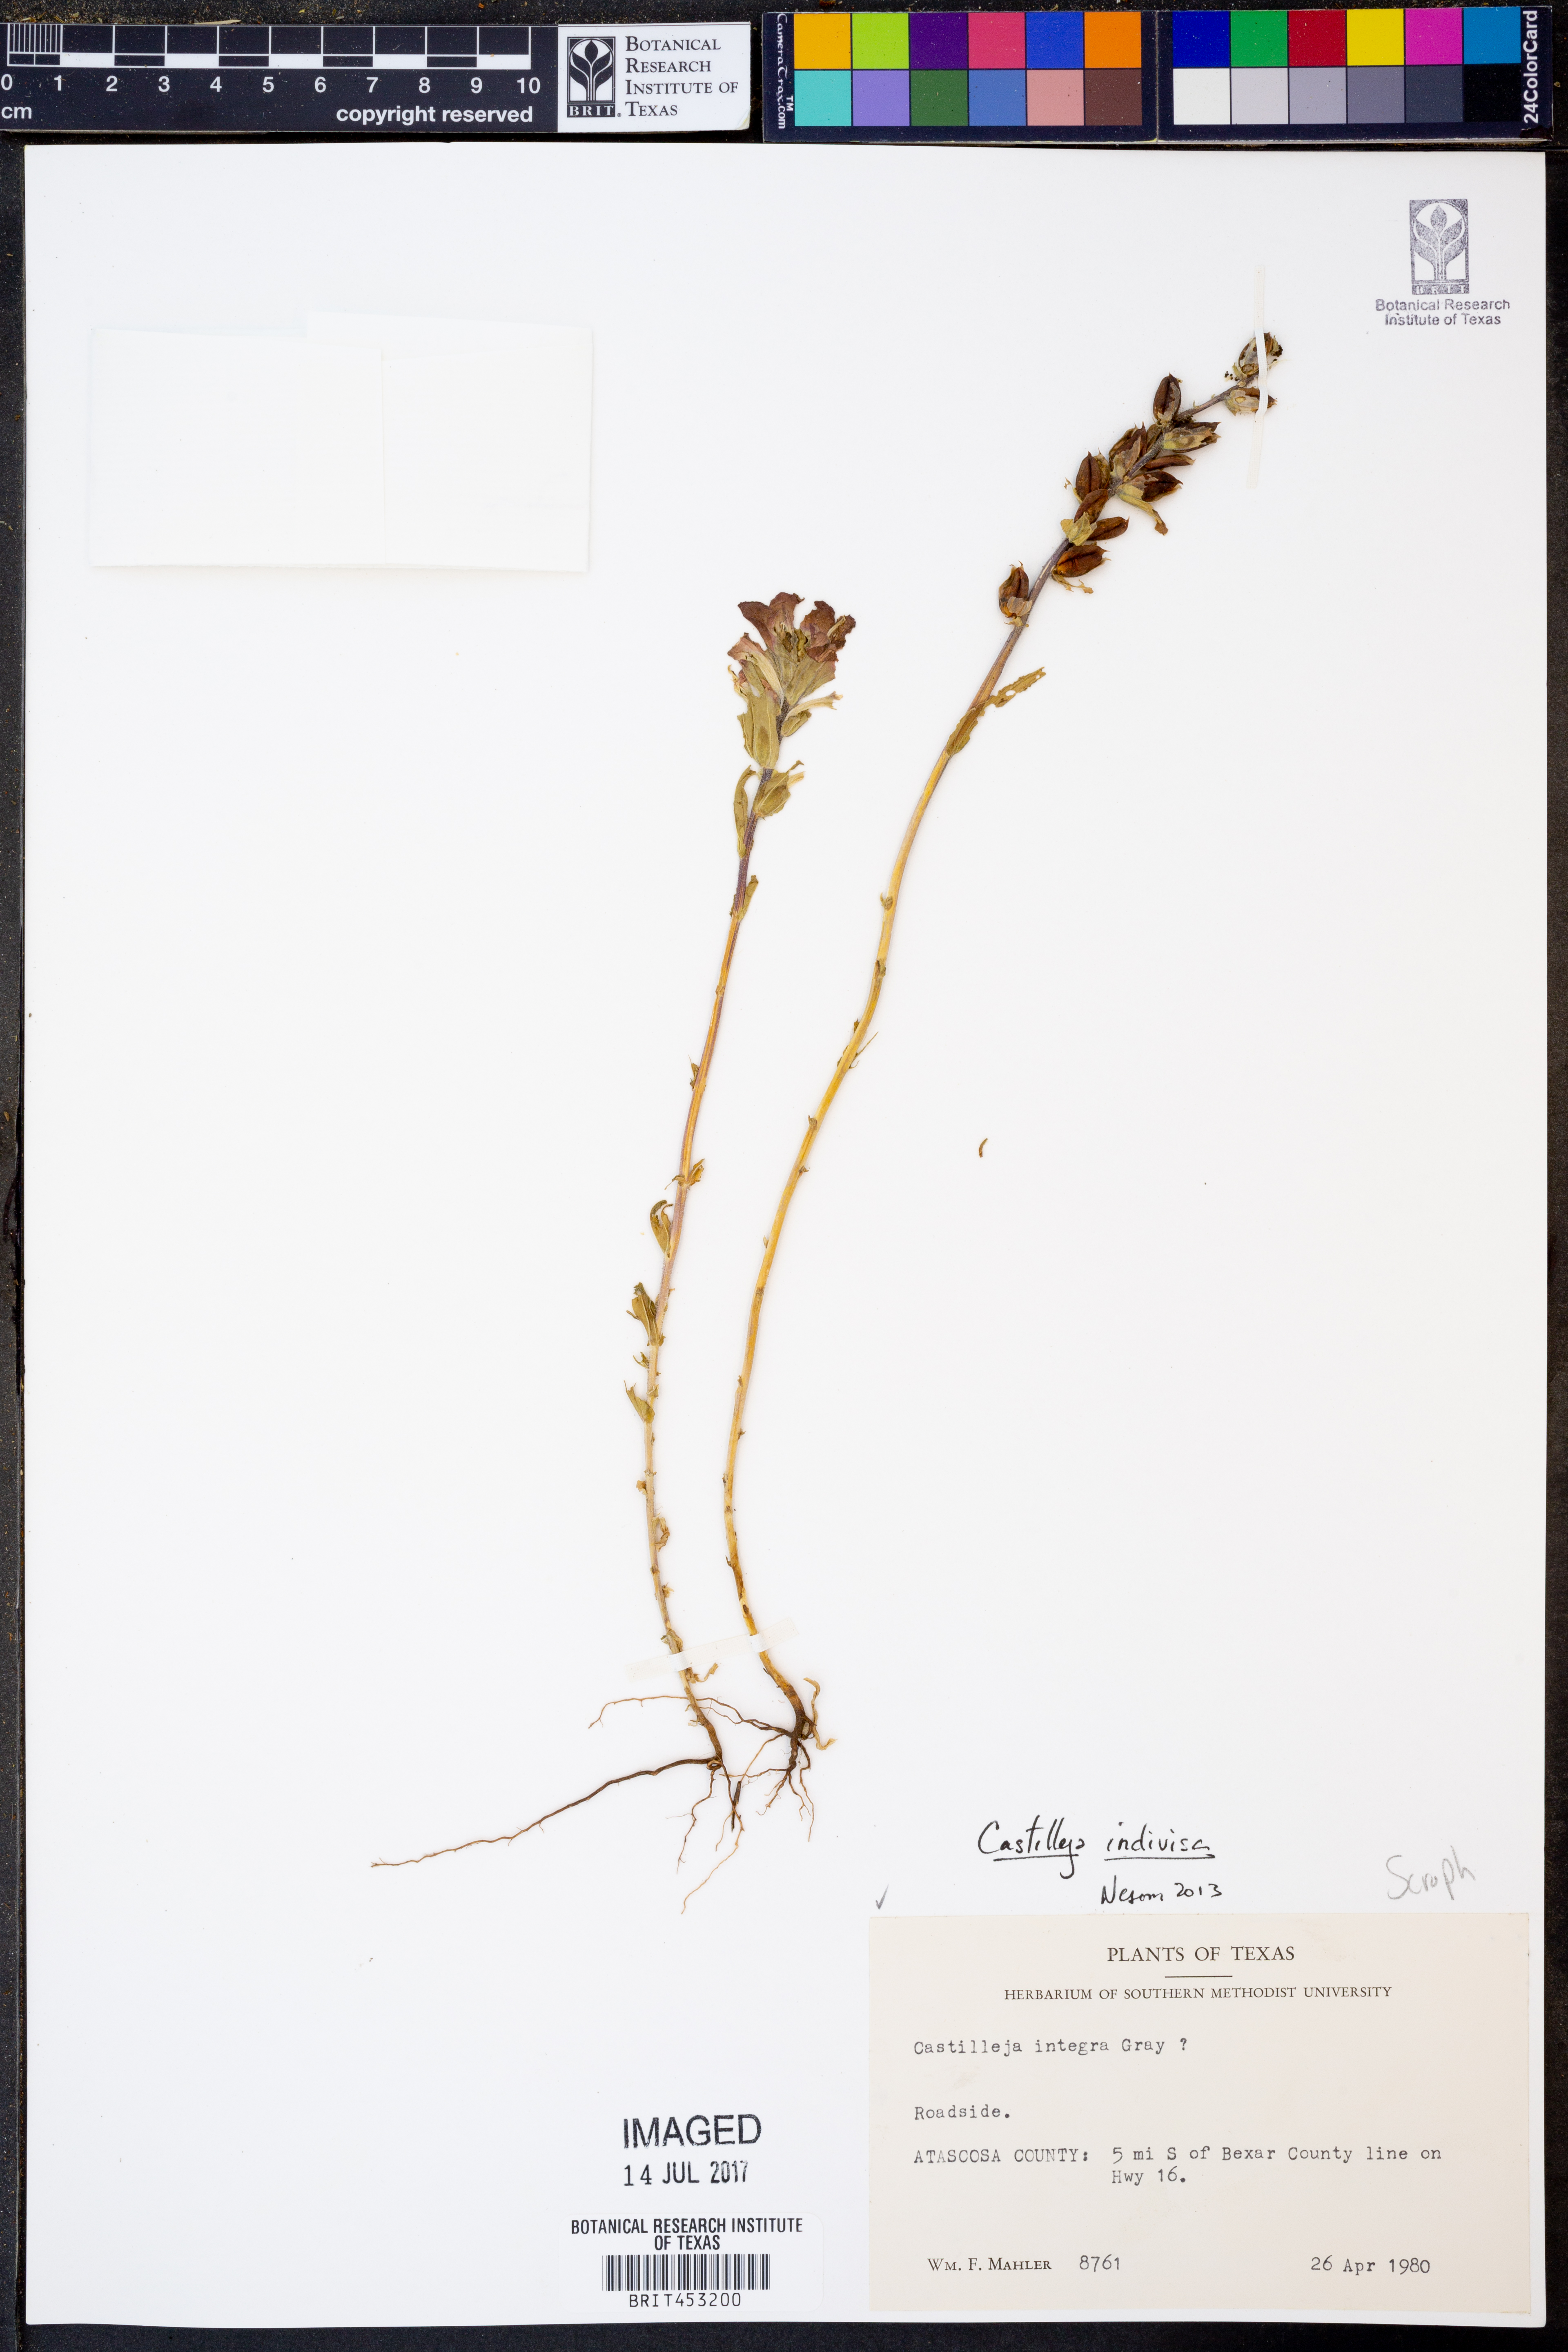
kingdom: Plantae
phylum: Tracheophyta
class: Magnoliopsida
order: Lamiales
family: Orobanchaceae
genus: Castilleja
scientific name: Castilleja indivisa
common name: Texas paintbrush
